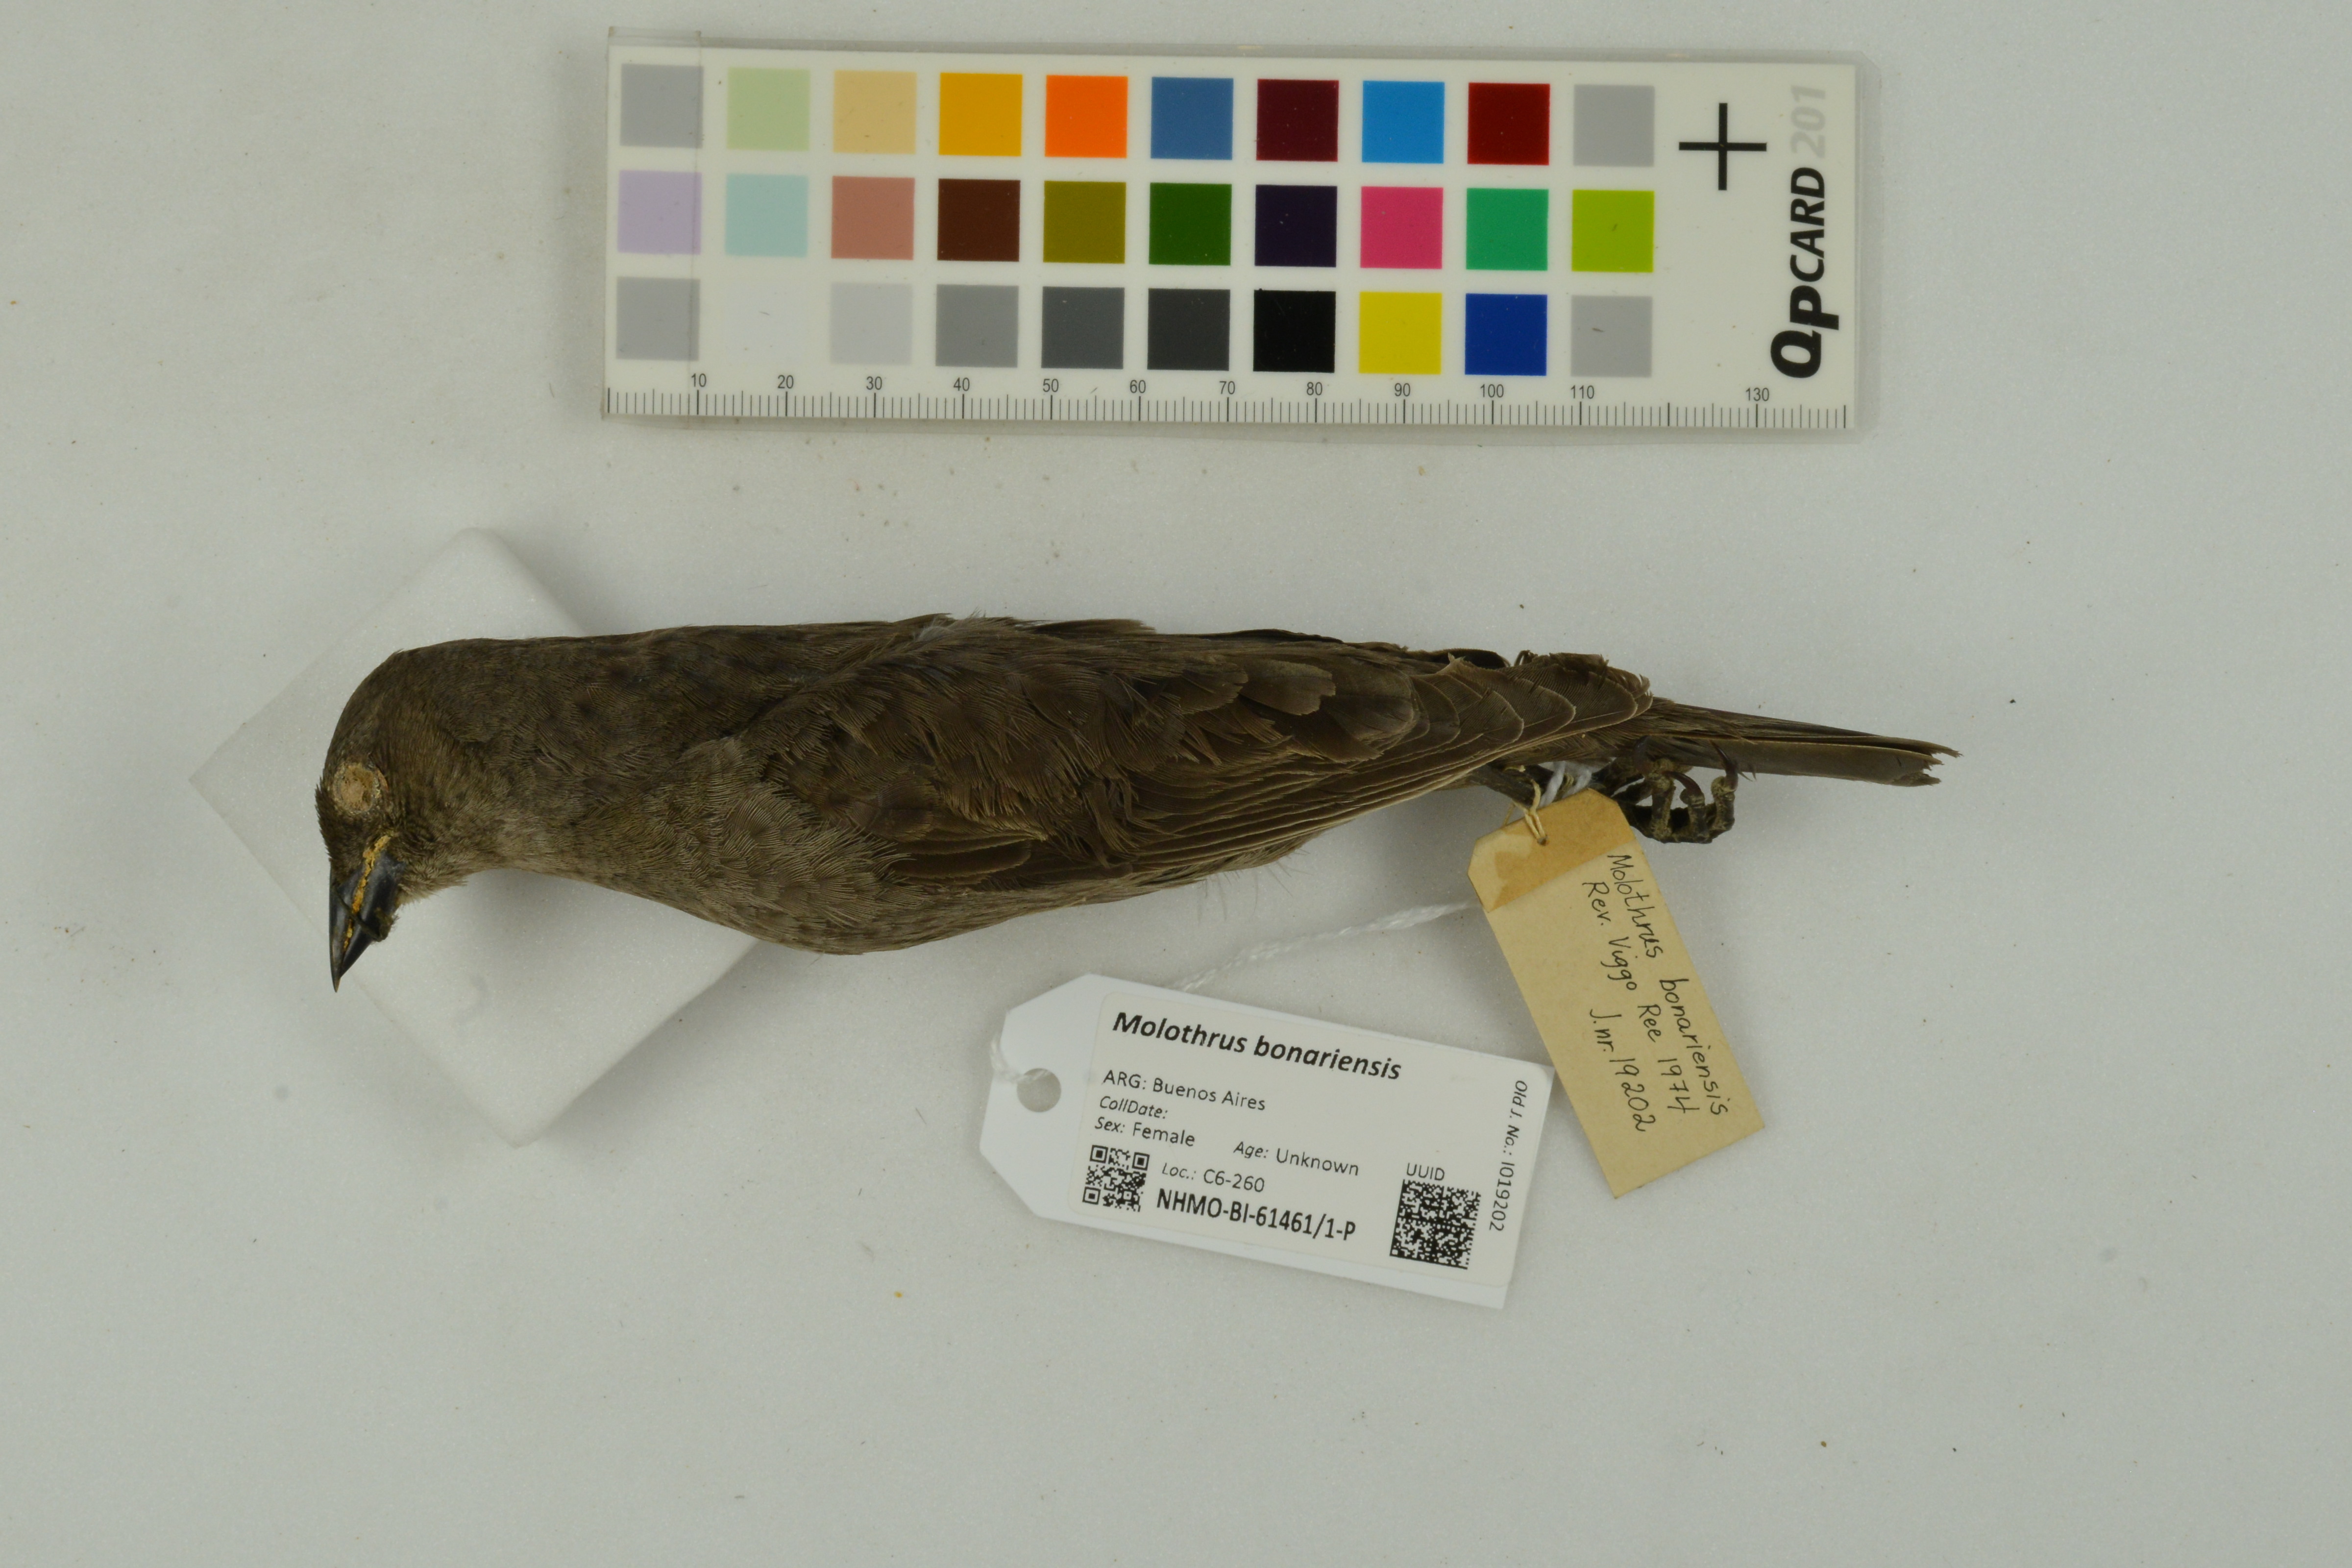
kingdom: Animalia
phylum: Chordata
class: Aves
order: Passeriformes
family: Icteridae
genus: Molothrus
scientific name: Molothrus bonariensis
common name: Shiny cowbird
